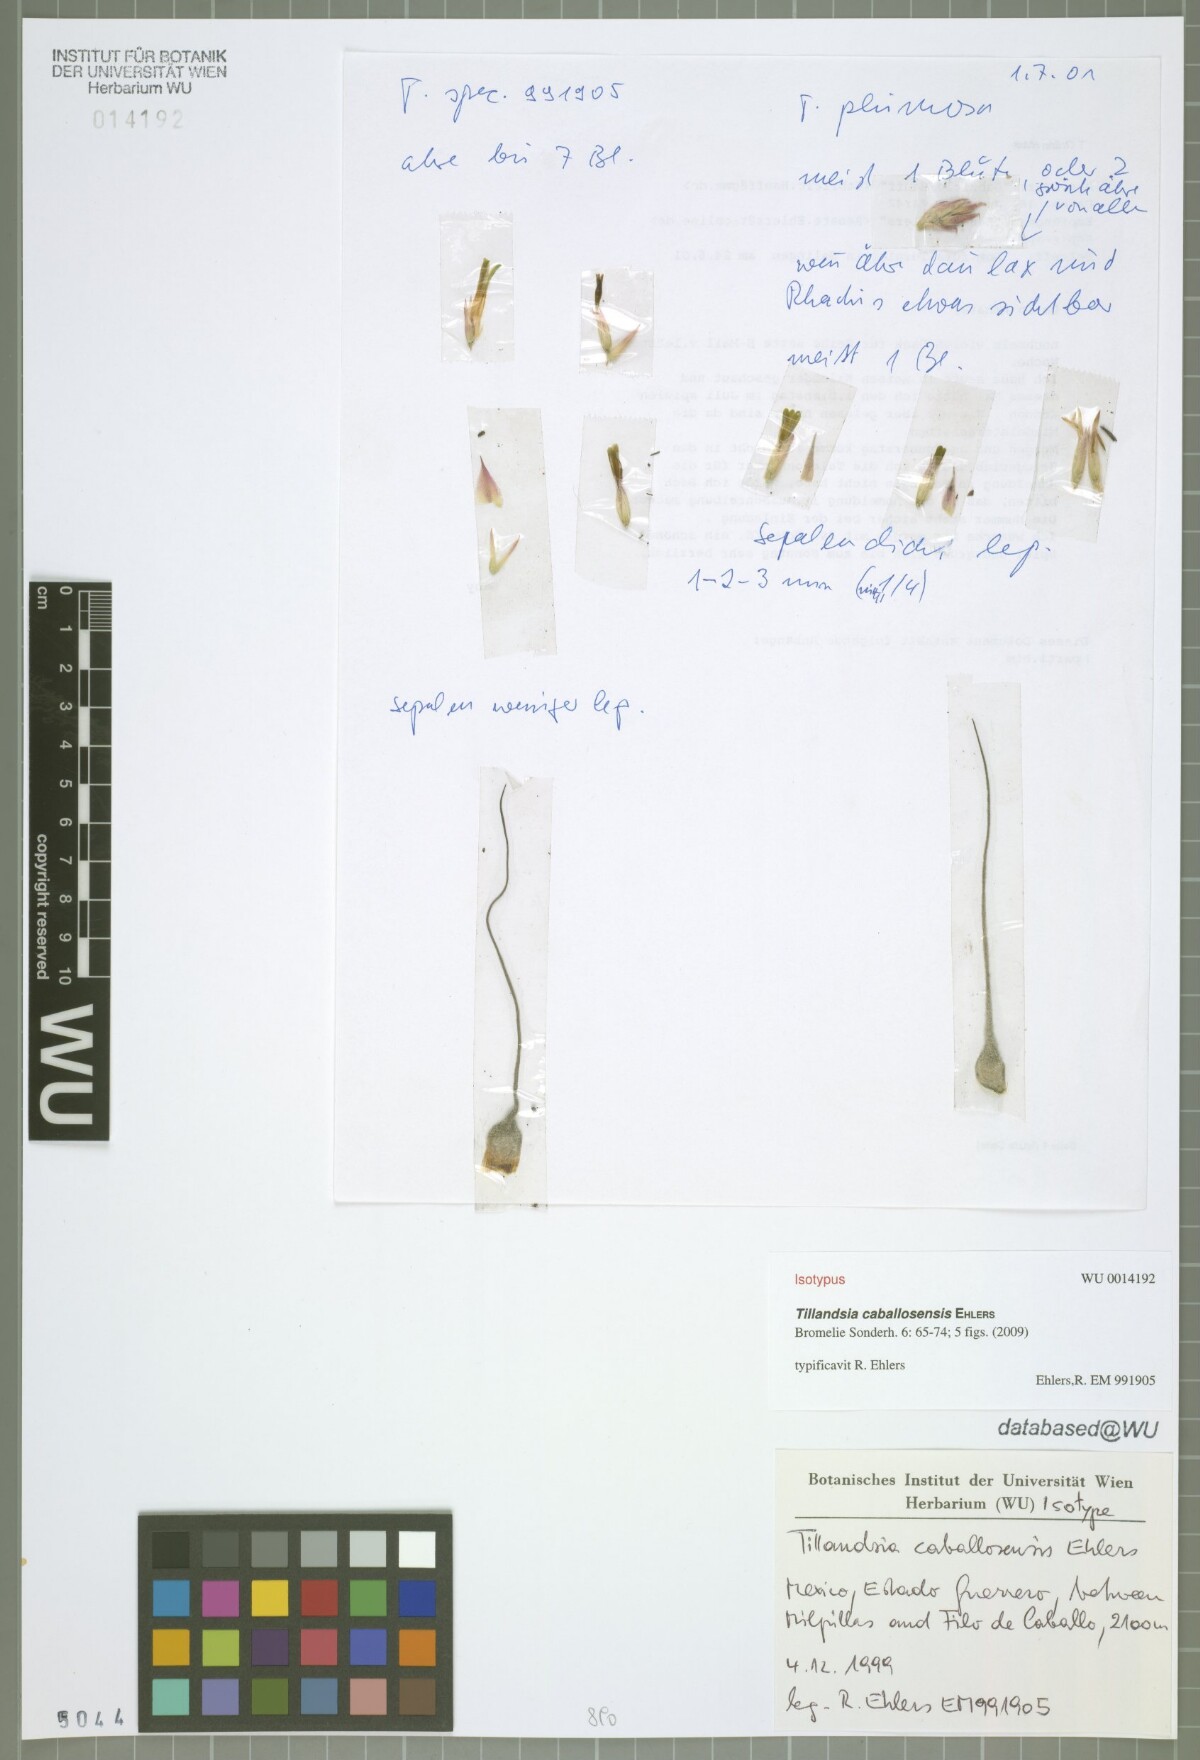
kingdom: Plantae
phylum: Tracheophyta
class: Liliopsida
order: Poales
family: Bromeliaceae
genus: Tillandsia
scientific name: Tillandsia caballosensis
